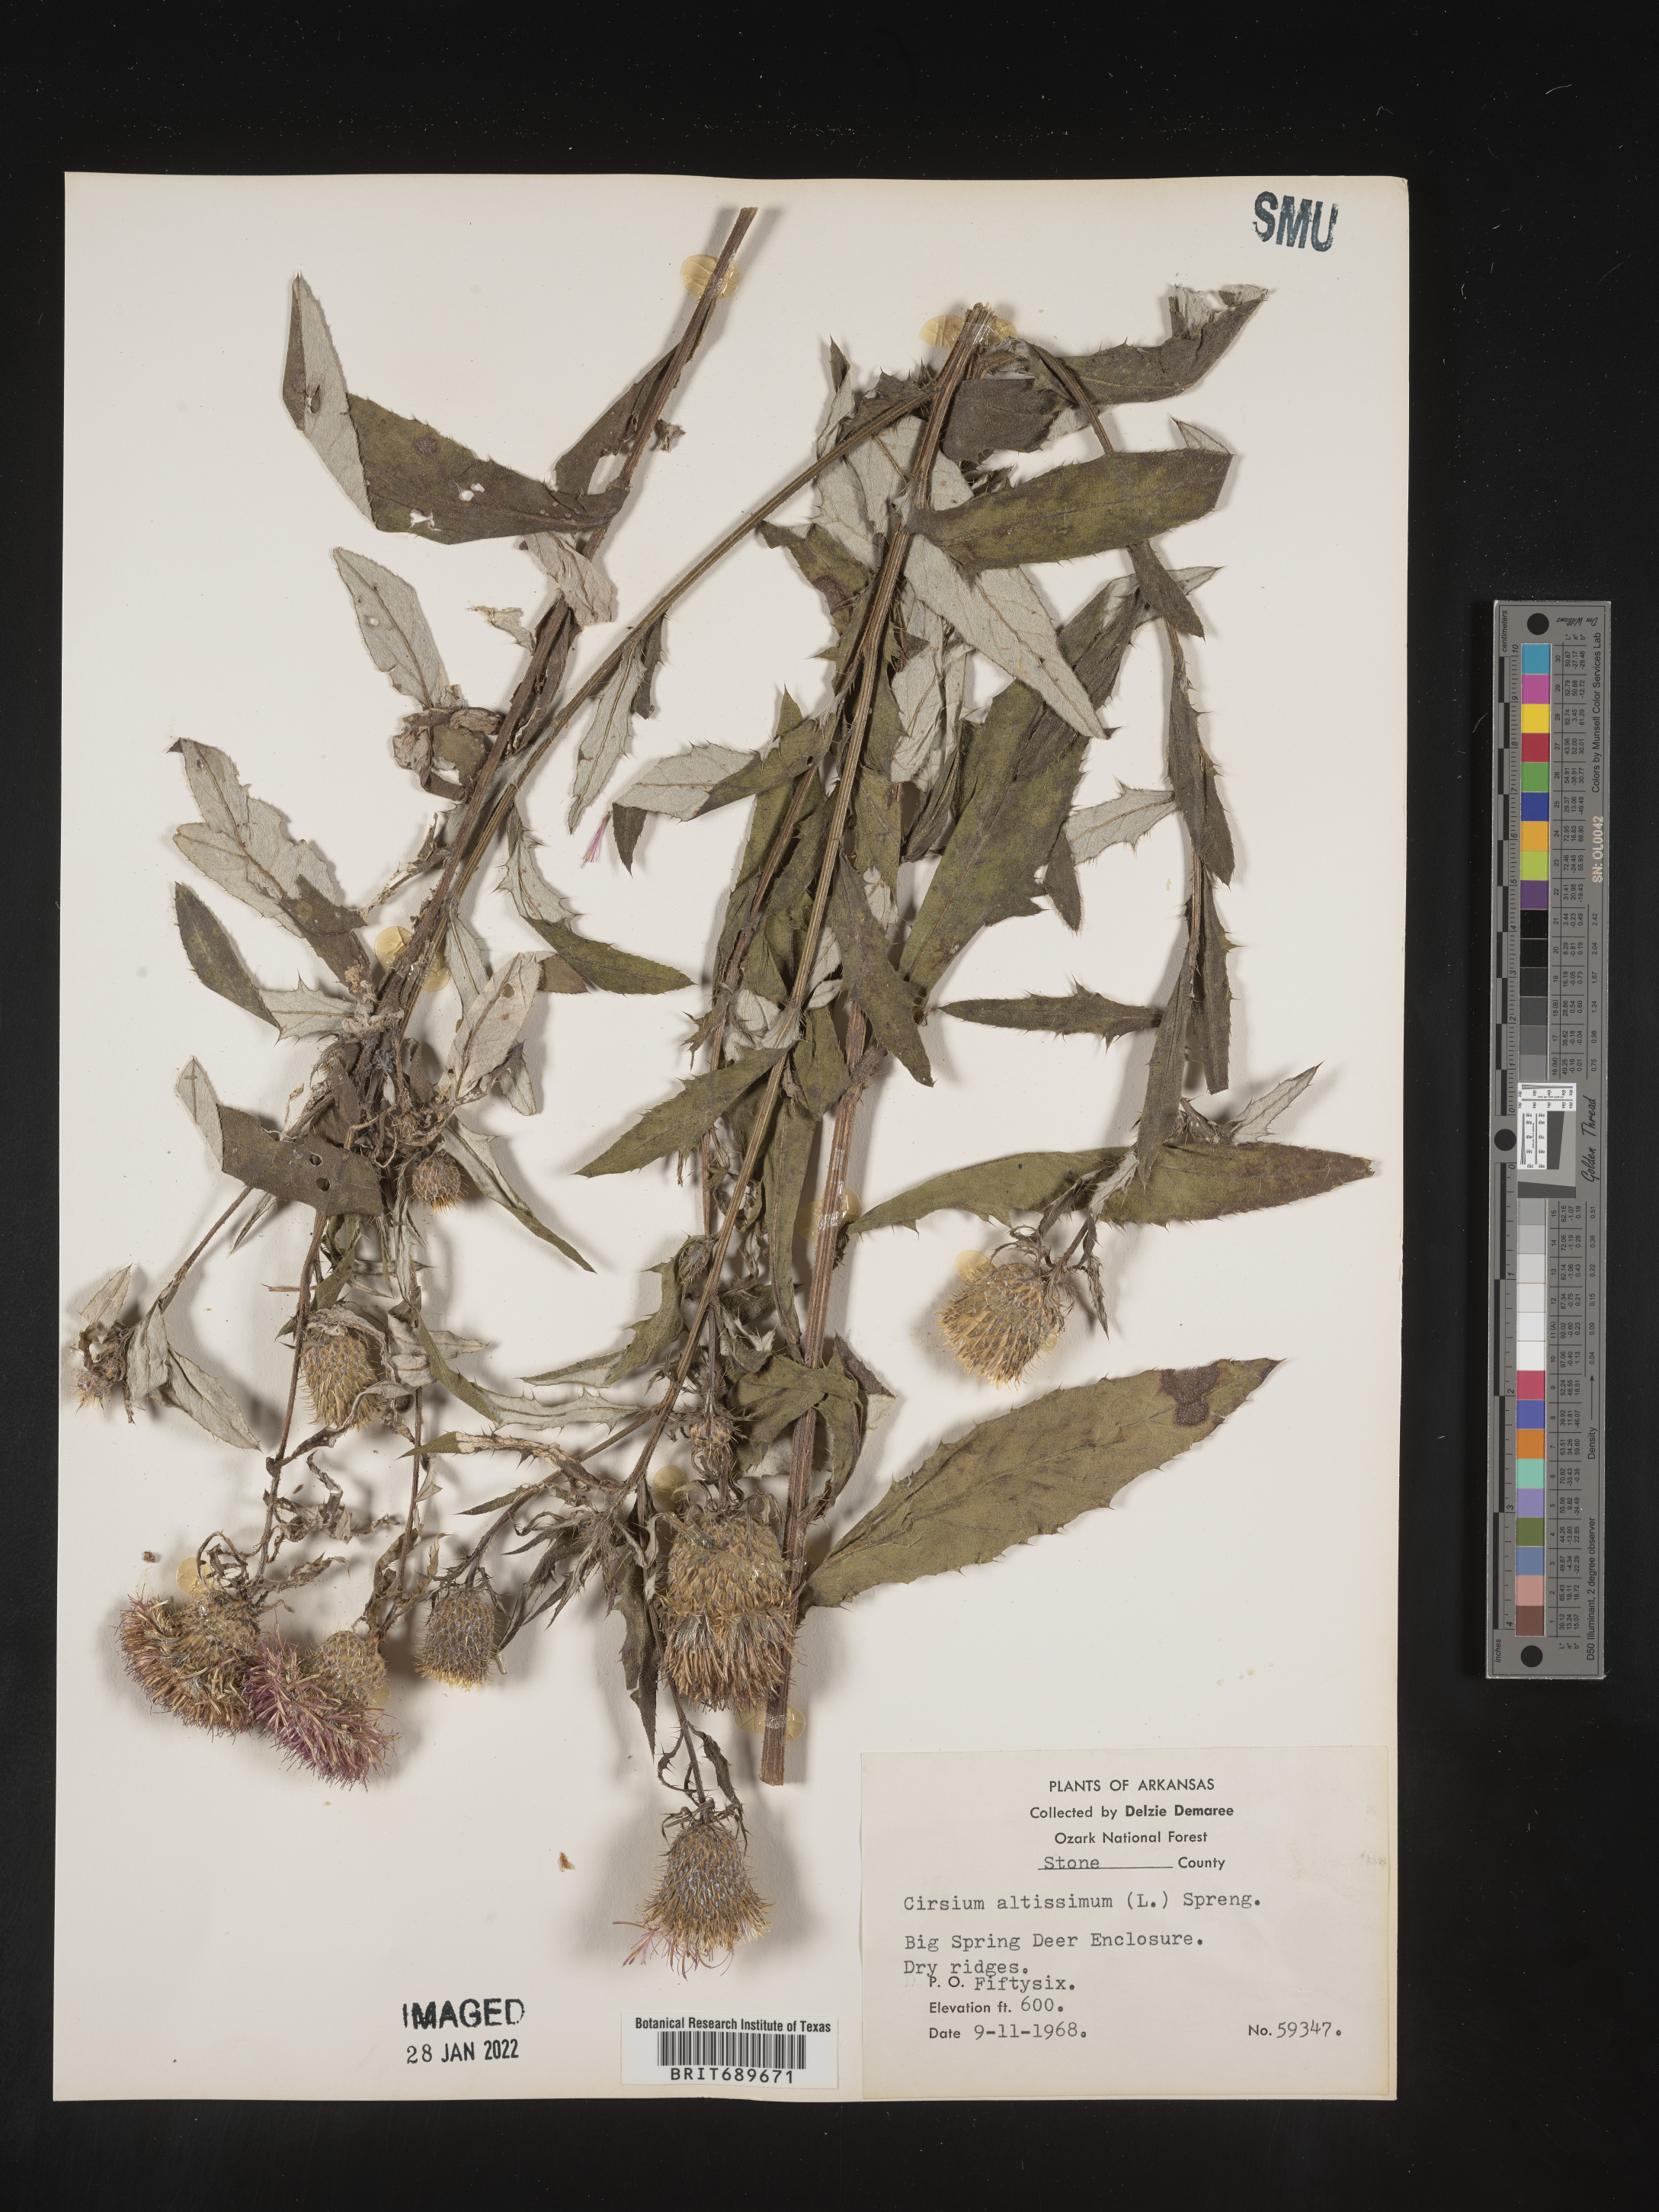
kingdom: Plantae
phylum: Tracheophyta
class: Magnoliopsida
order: Asterales
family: Asteraceae
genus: Cirsium
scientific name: Cirsium altissimum
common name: Roadside thistle
